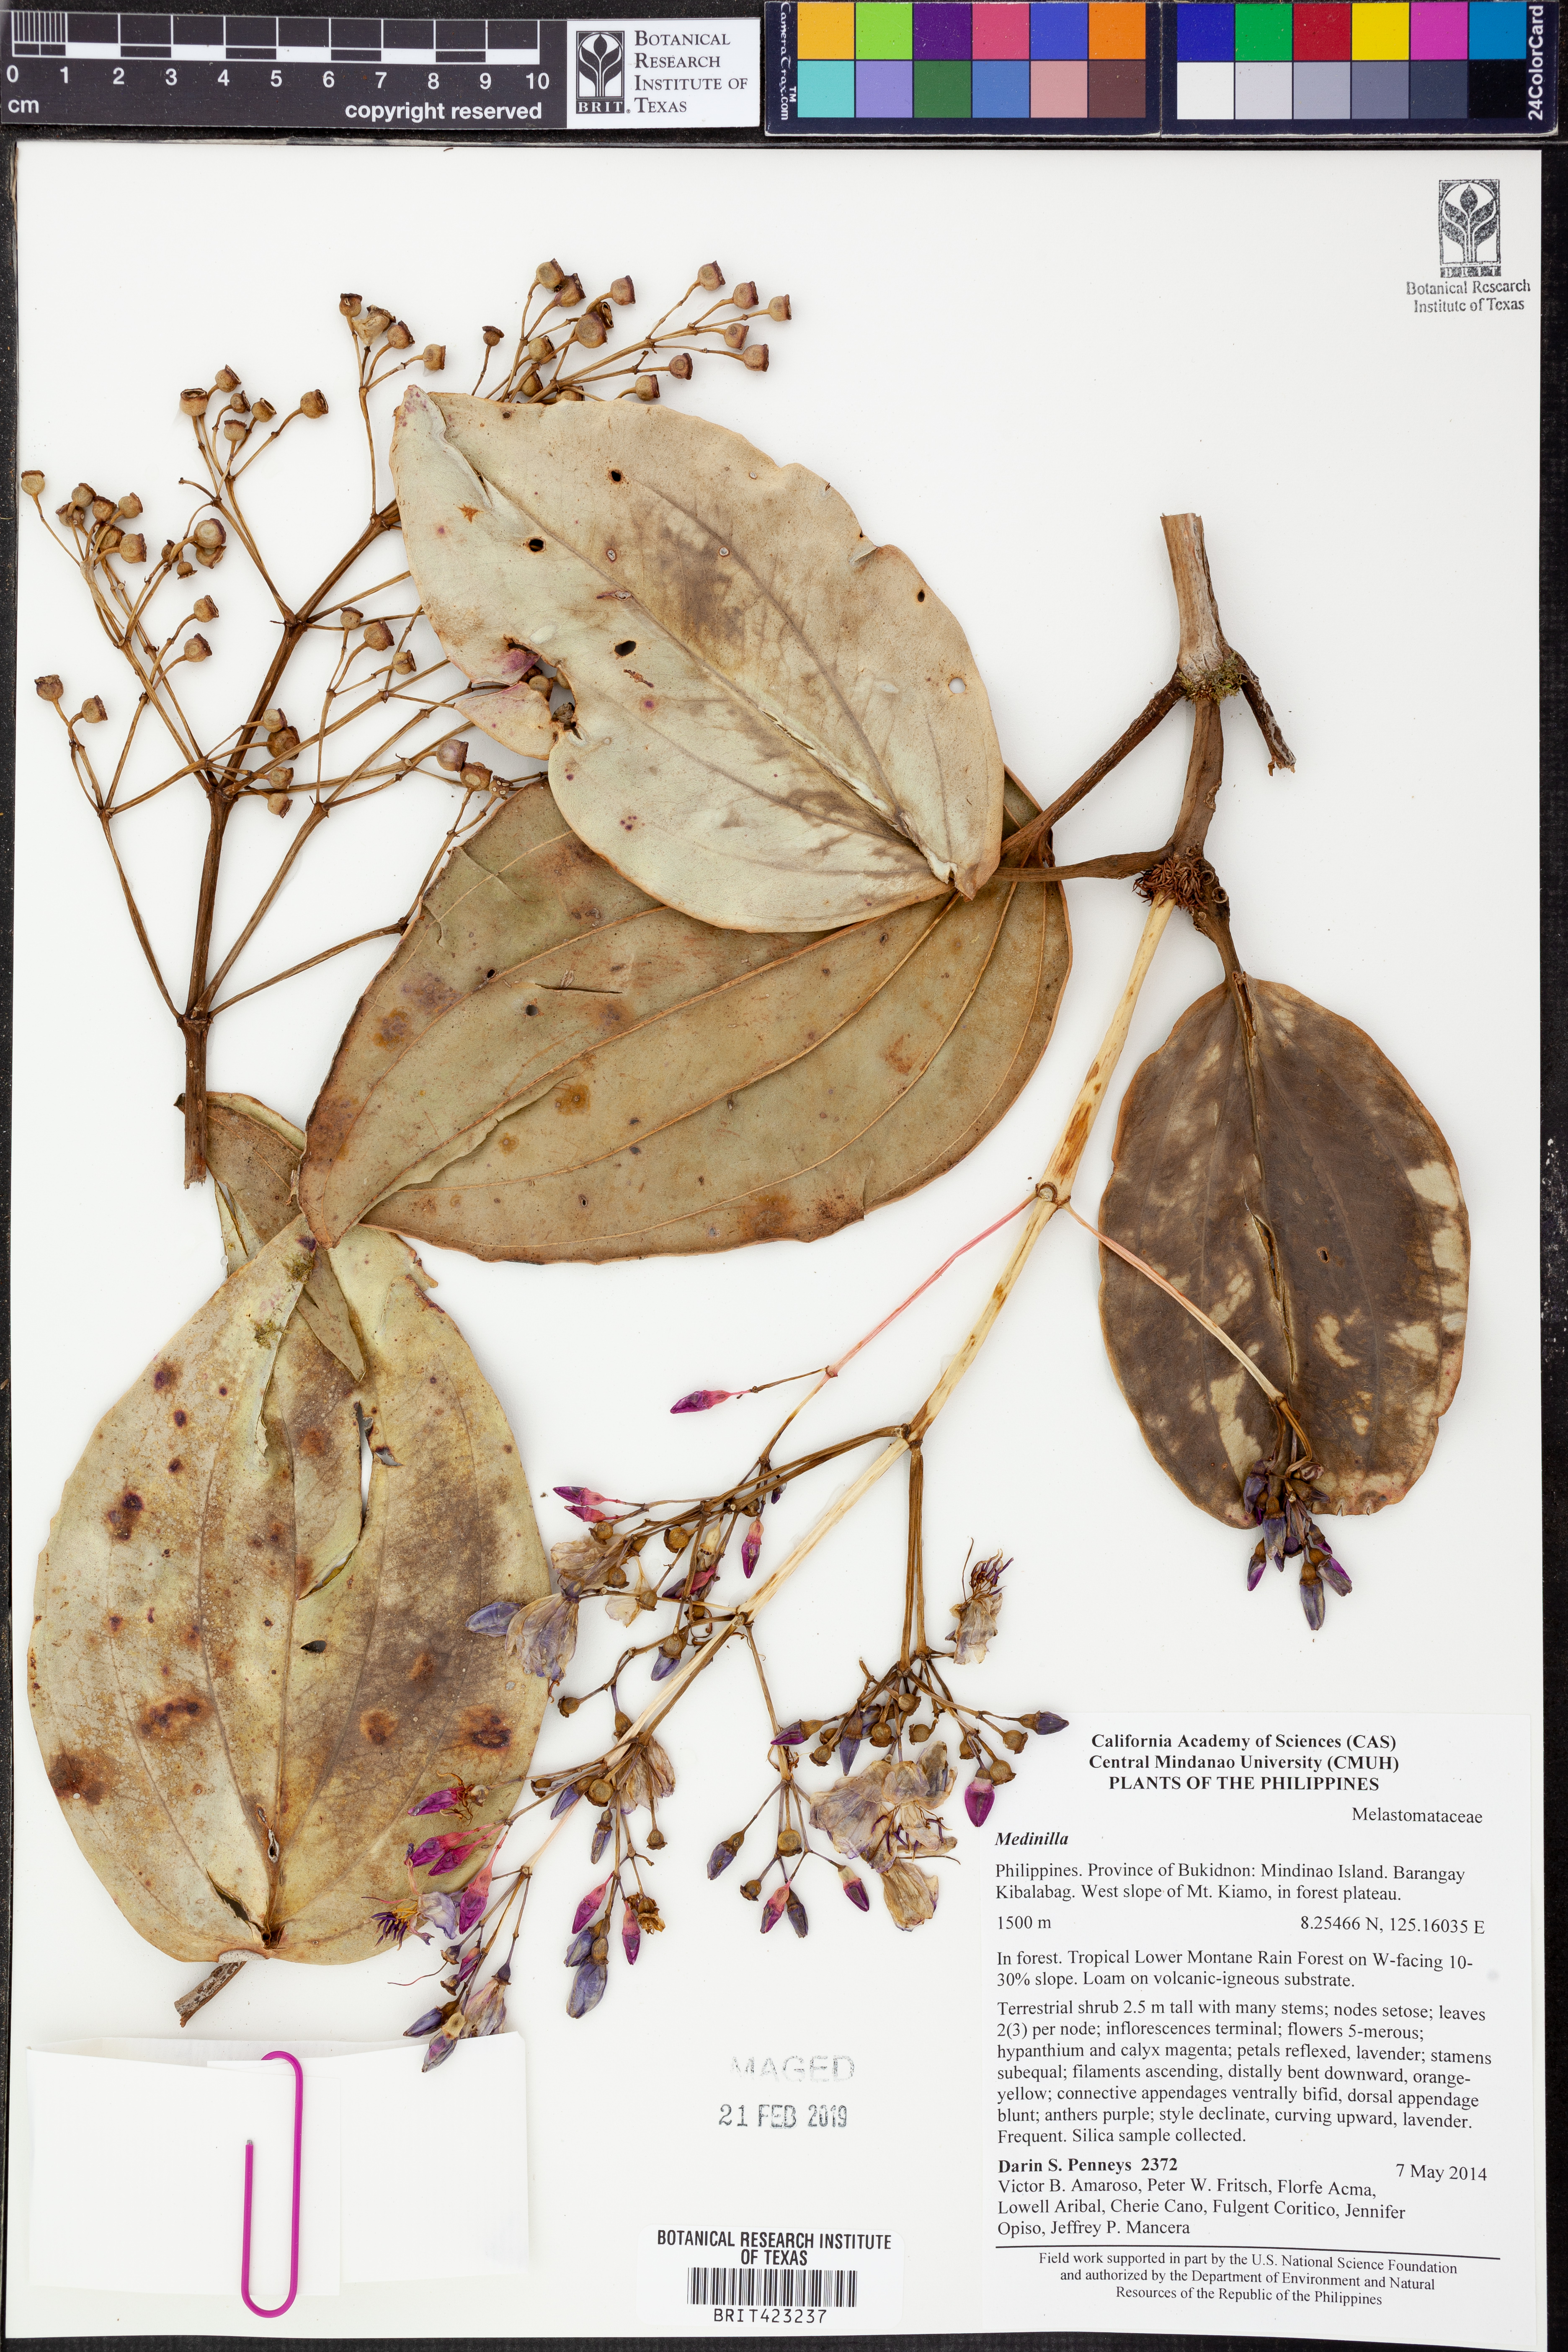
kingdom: Plantae
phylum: Tracheophyta
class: Magnoliopsida
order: Myrtales
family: Melastomataceae
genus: Medinilla
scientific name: Medinilla
